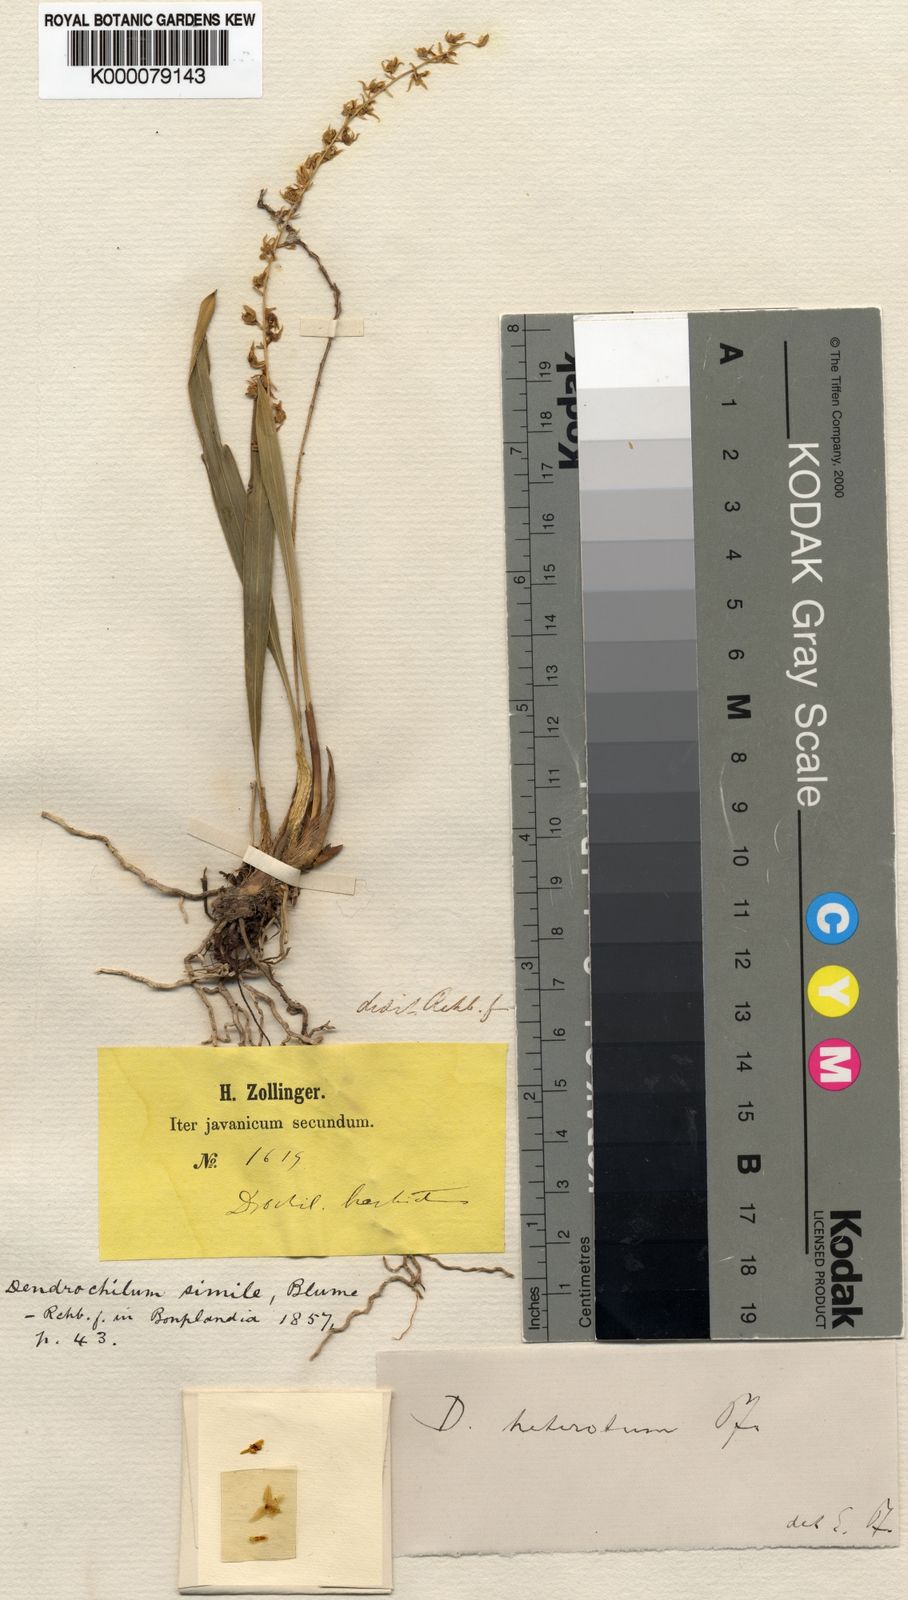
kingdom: Plantae
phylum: Tracheophyta
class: Liliopsida
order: Asparagales
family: Orchidaceae
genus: Coelogyne
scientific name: Coelogyne gracilis
